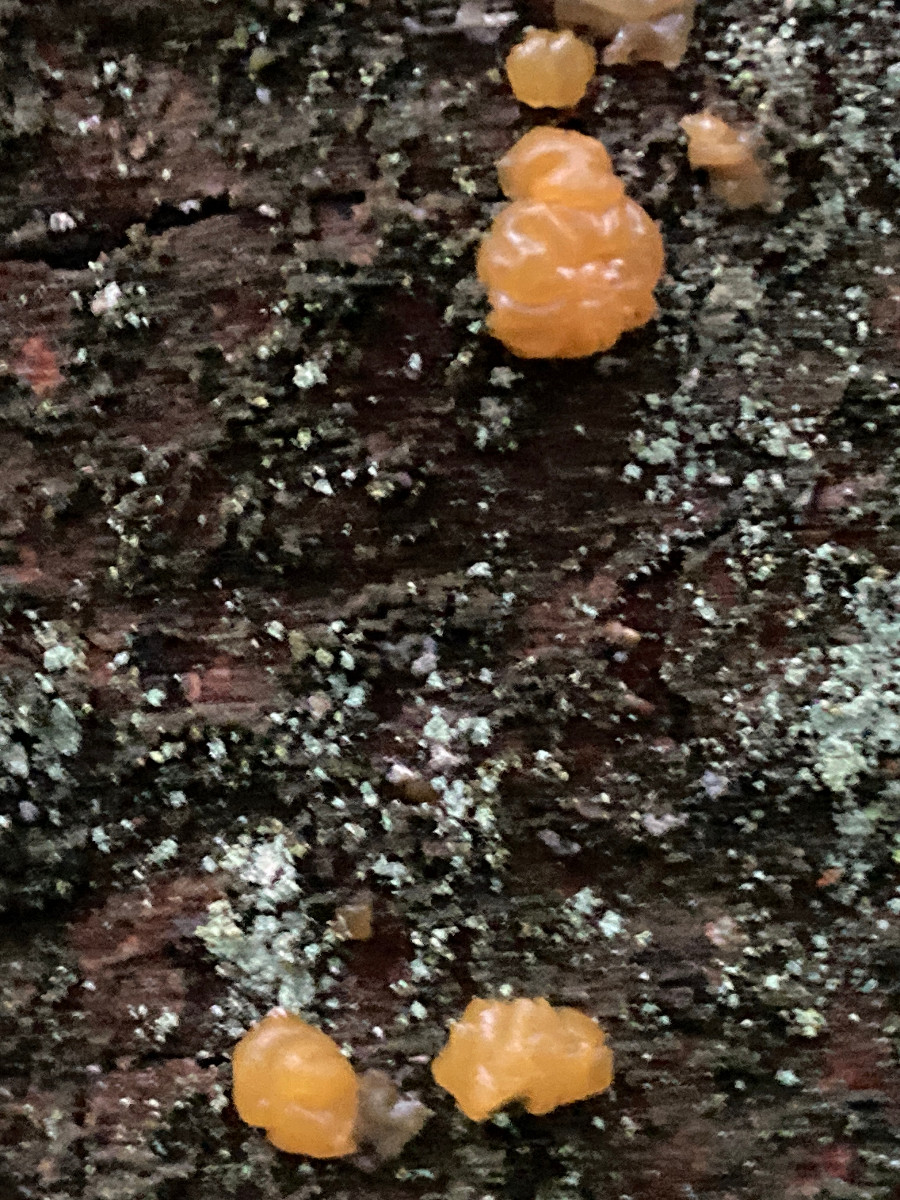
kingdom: Fungi
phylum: Basidiomycota
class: Dacrymycetes
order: Dacrymycetales
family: Dacrymycetaceae
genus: Dacrymyces
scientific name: Dacrymyces stillatus
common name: almindelig tåresvamp
